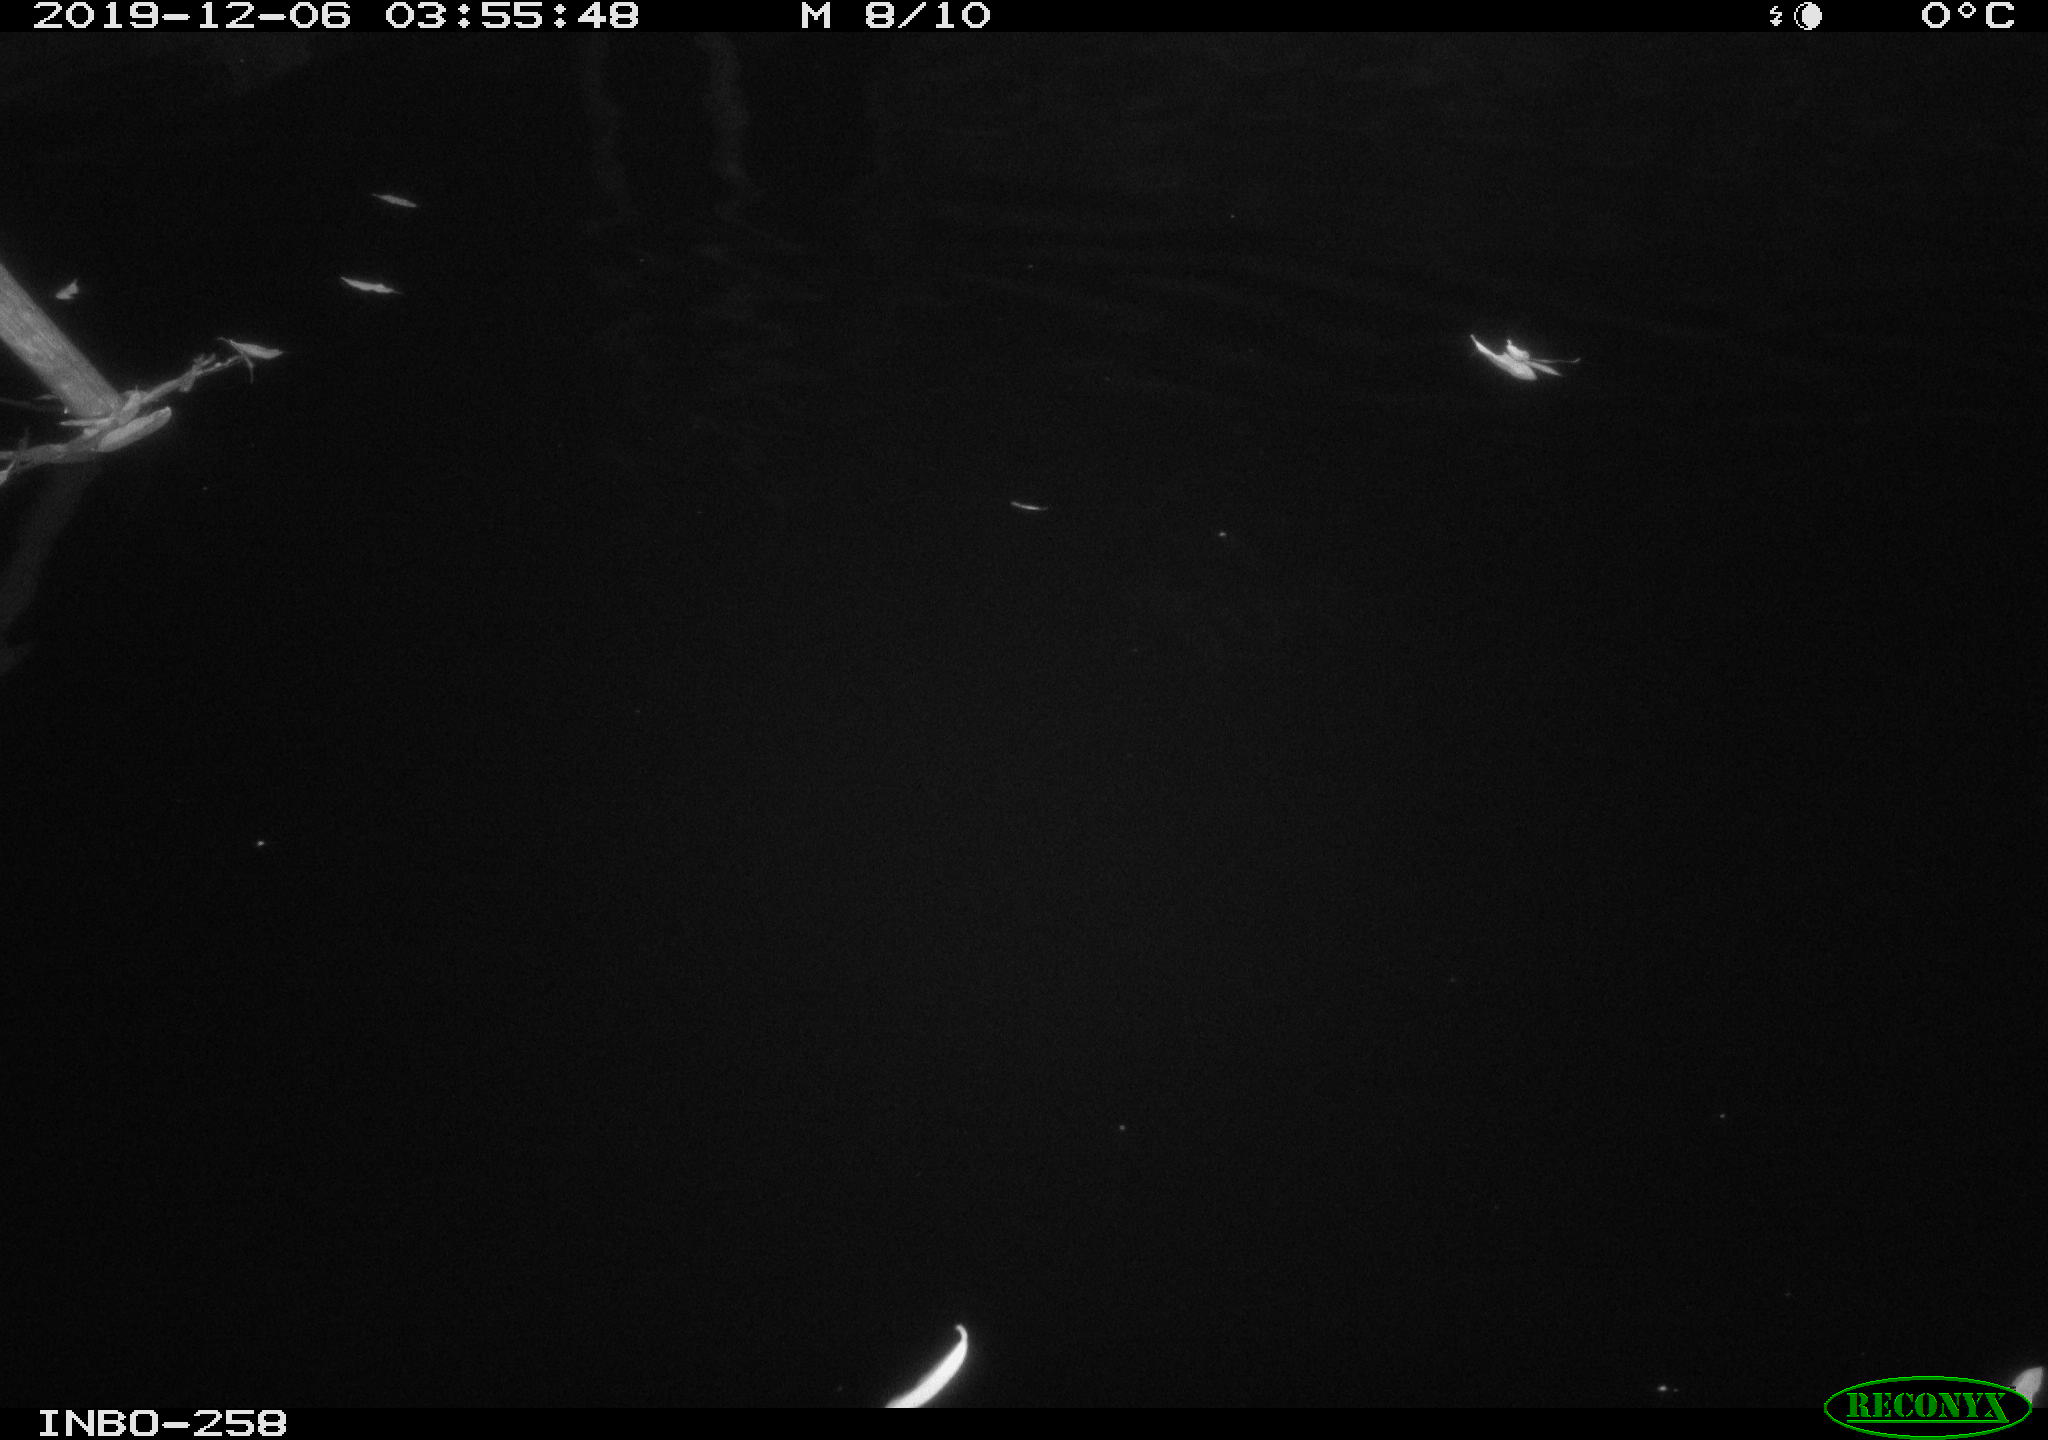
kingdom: Animalia
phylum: Chordata
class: Aves
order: Anseriformes
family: Anatidae
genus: Anas
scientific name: Anas platyrhynchos
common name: Mallard
